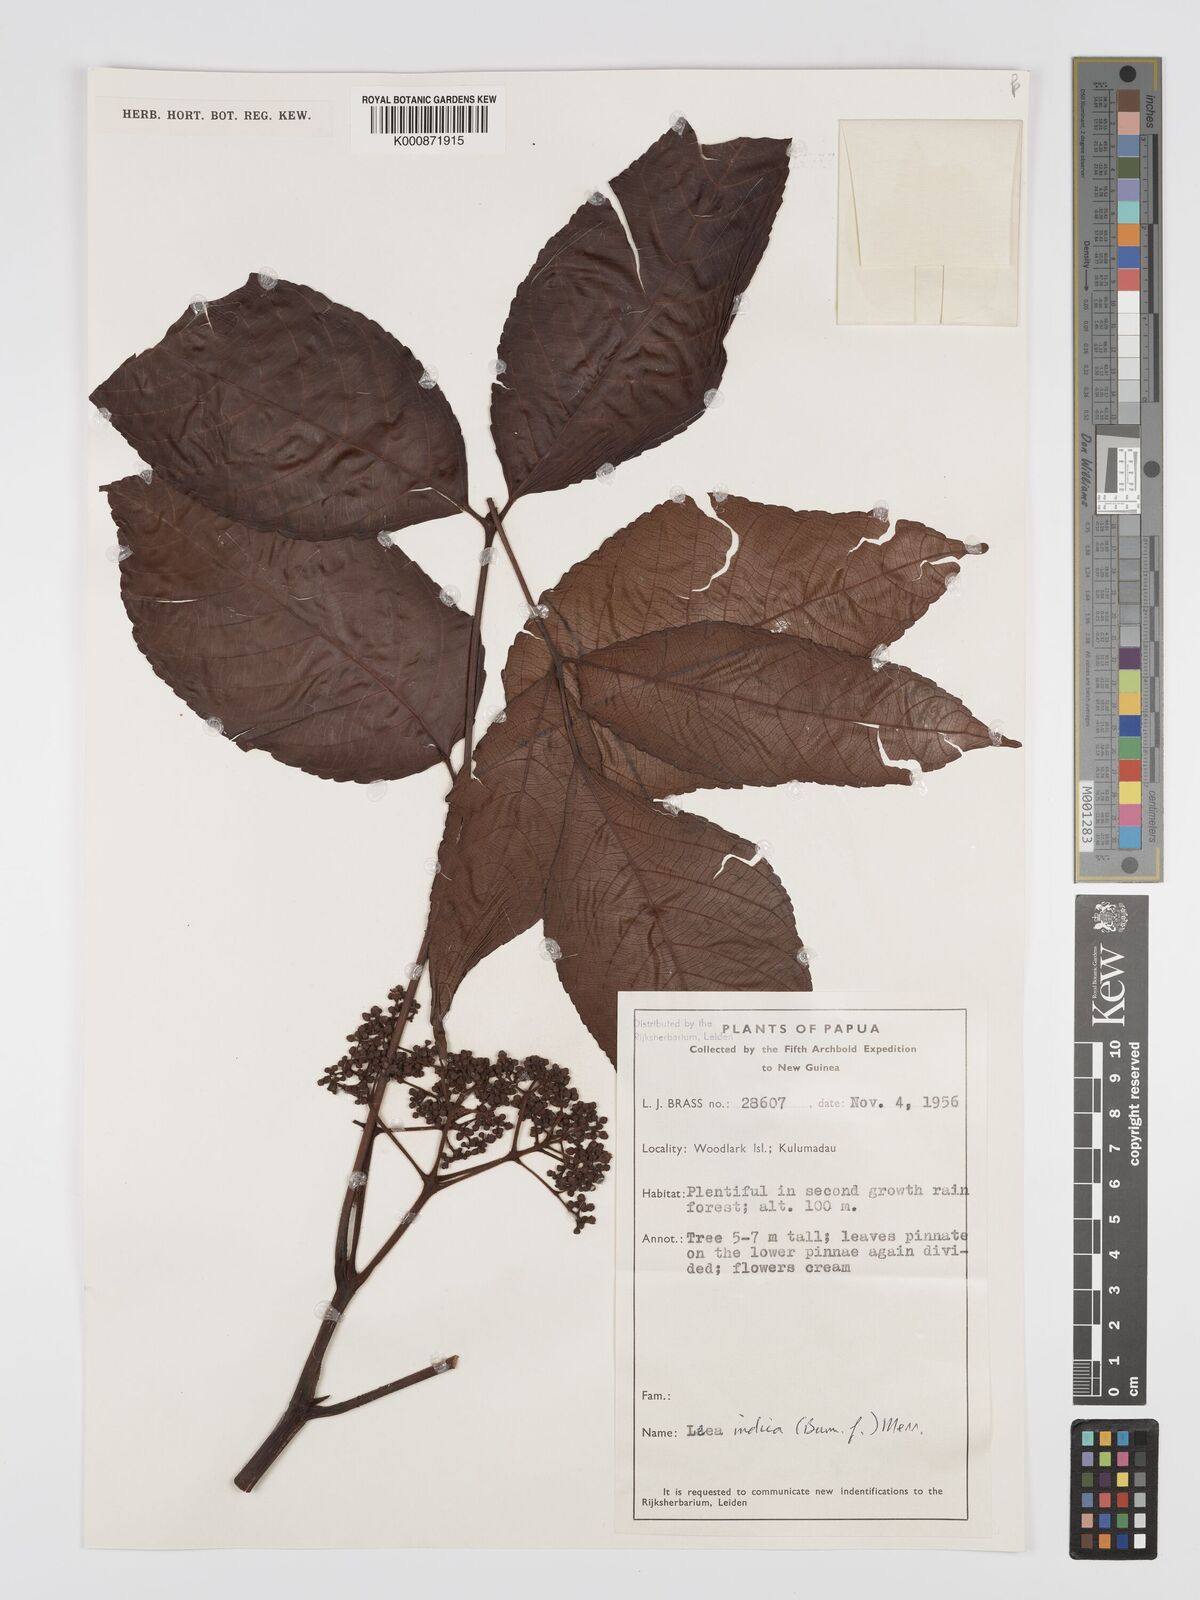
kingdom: Plantae
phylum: Tracheophyta
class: Magnoliopsida
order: Vitales
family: Vitaceae
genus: Leea
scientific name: Leea indica
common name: Bandicoot-berry
